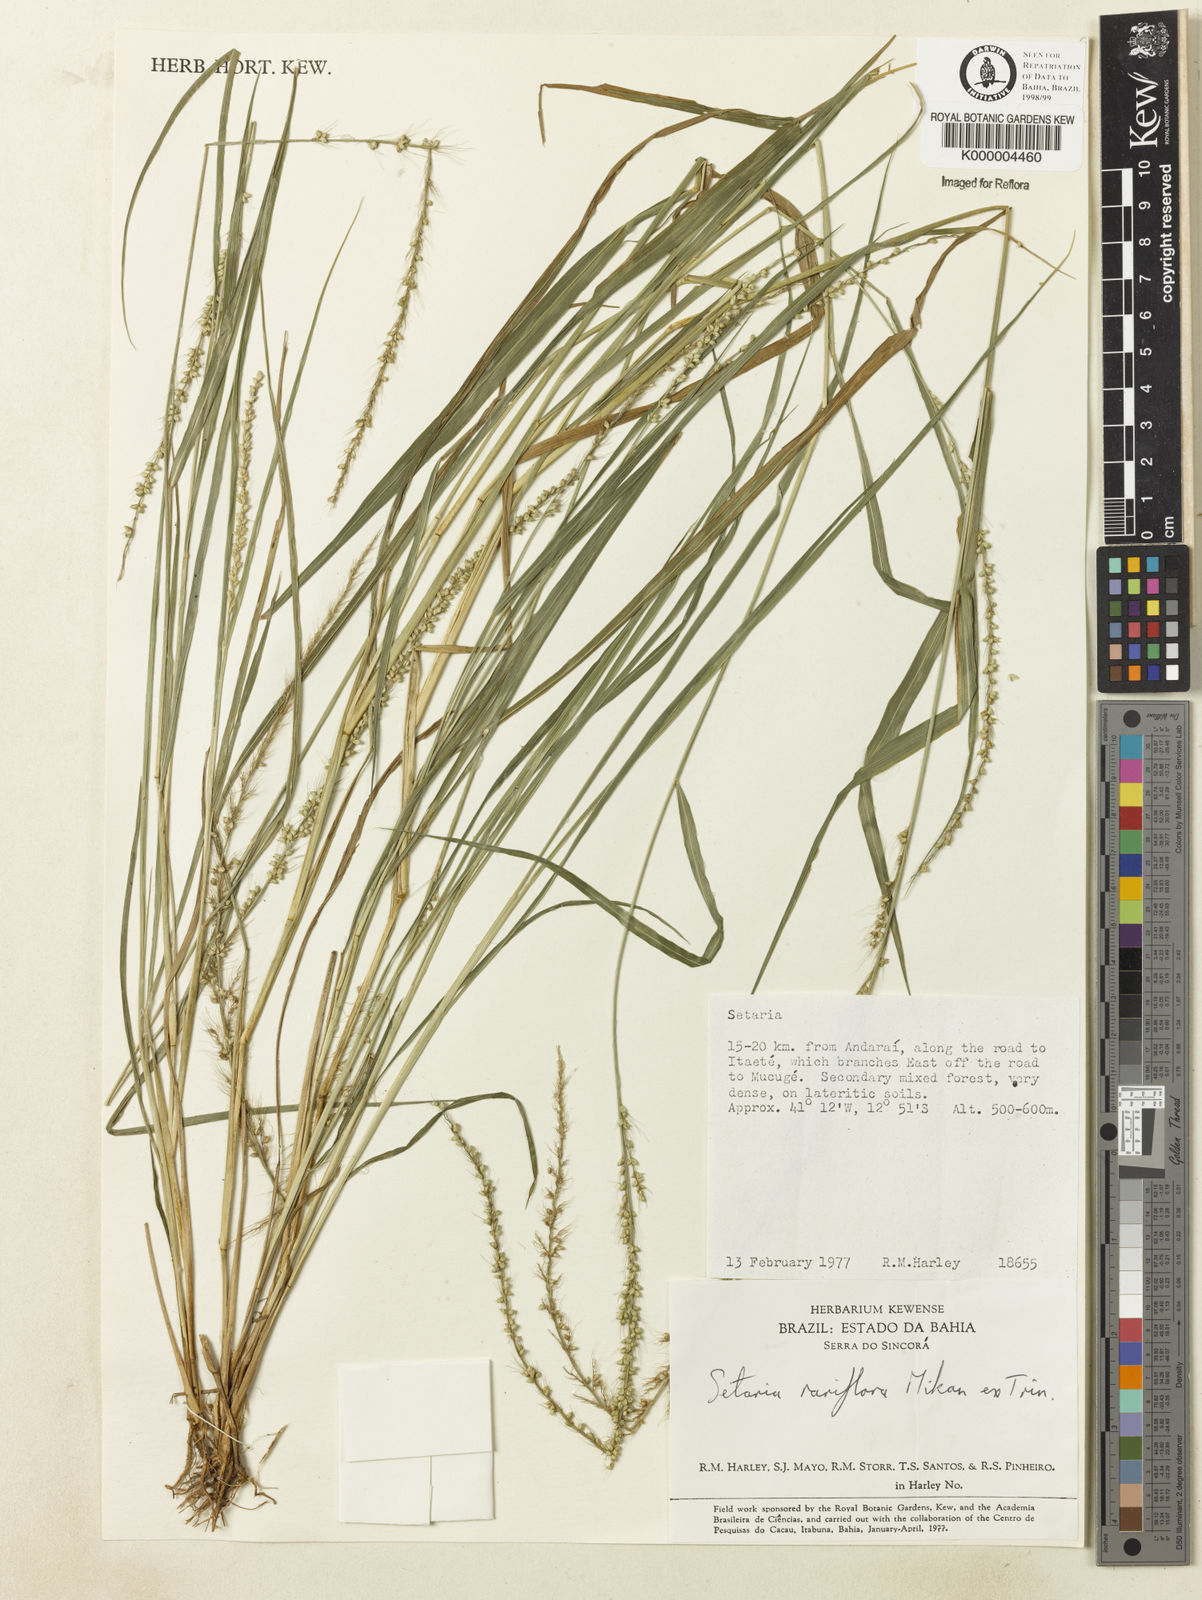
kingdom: Plantae
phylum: Tracheophyta
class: Liliopsida
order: Poales
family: Poaceae
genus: Setaria
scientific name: Setaria setosa
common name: West indies bristle grass
